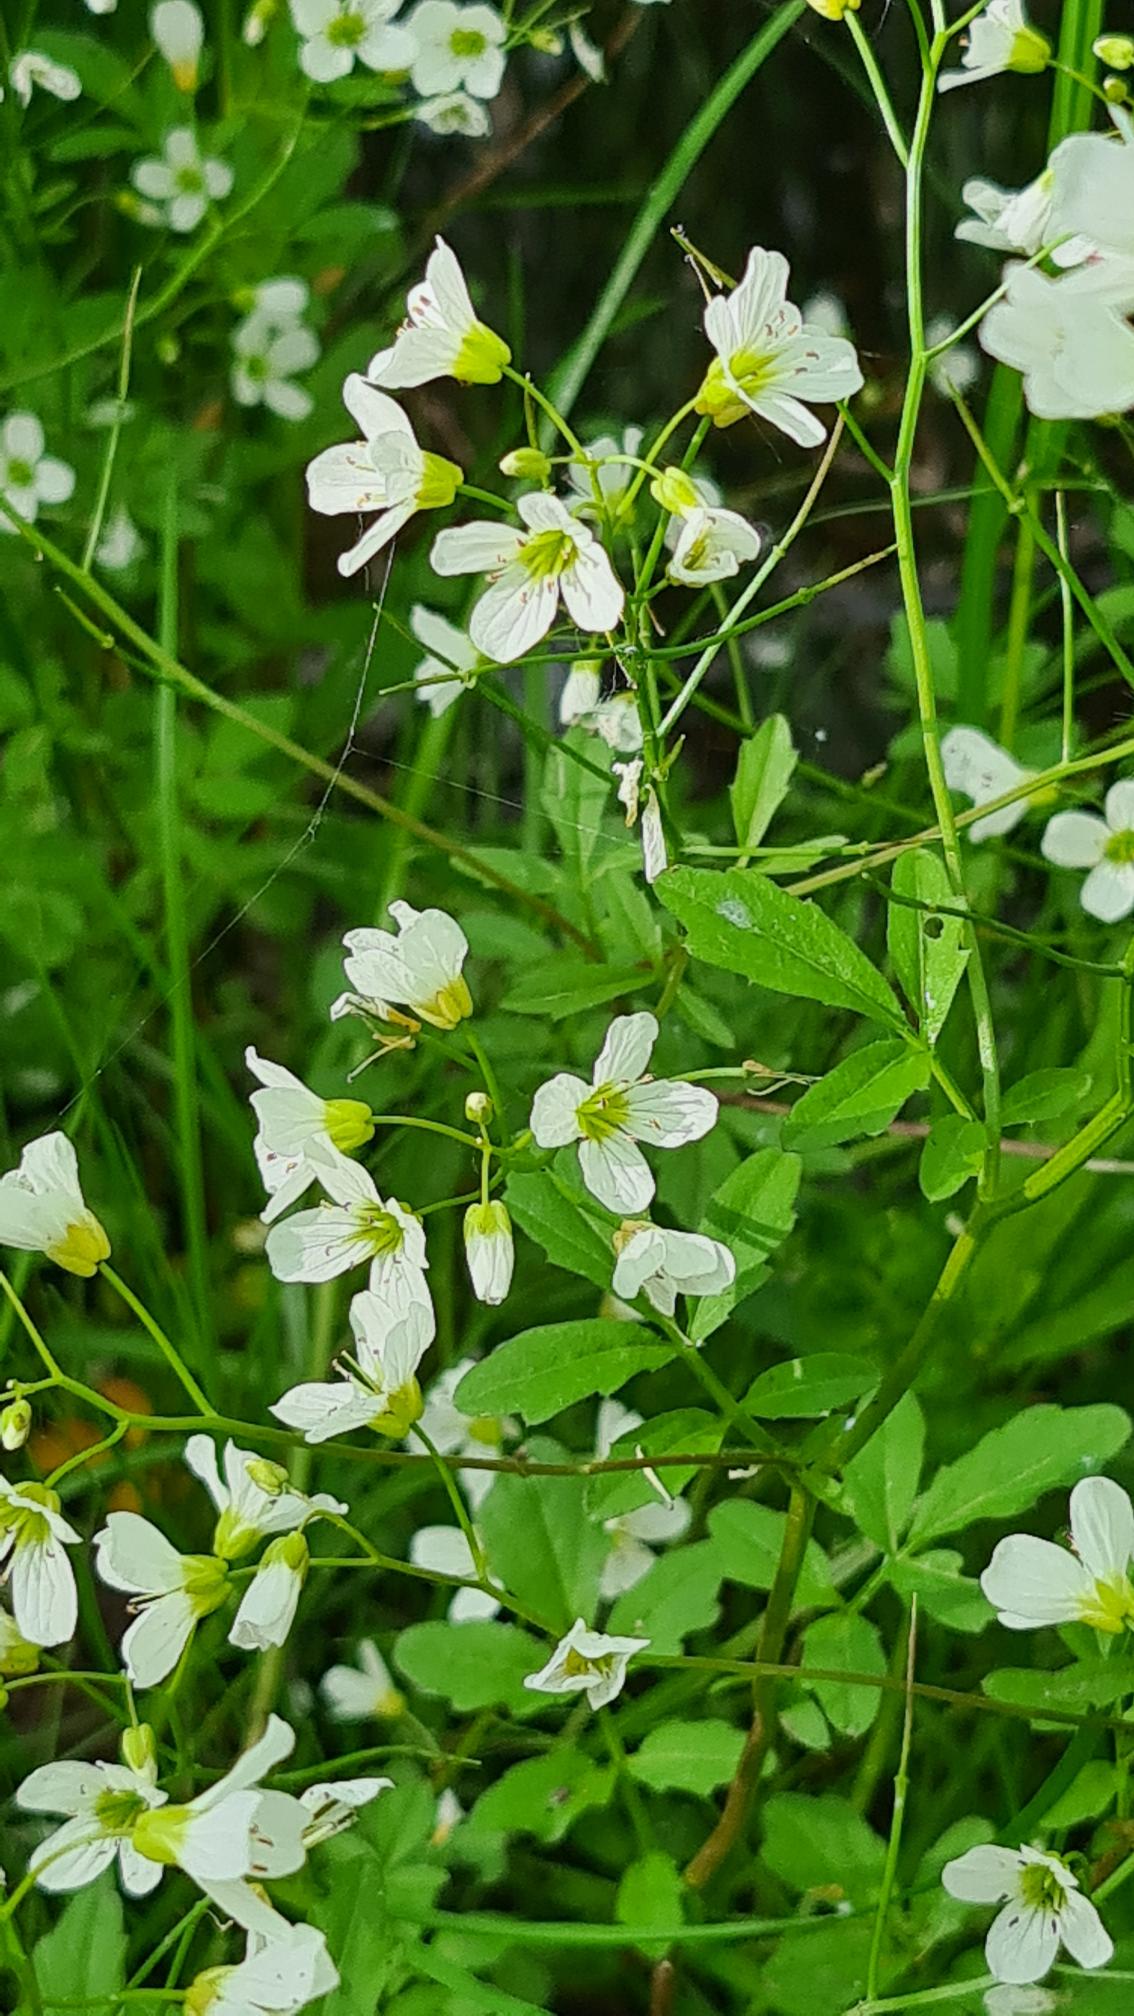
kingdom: Plantae
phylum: Tracheophyta
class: Magnoliopsida
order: Brassicales
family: Brassicaceae
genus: Cardamine
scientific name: Cardamine amara
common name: Vandkarse
